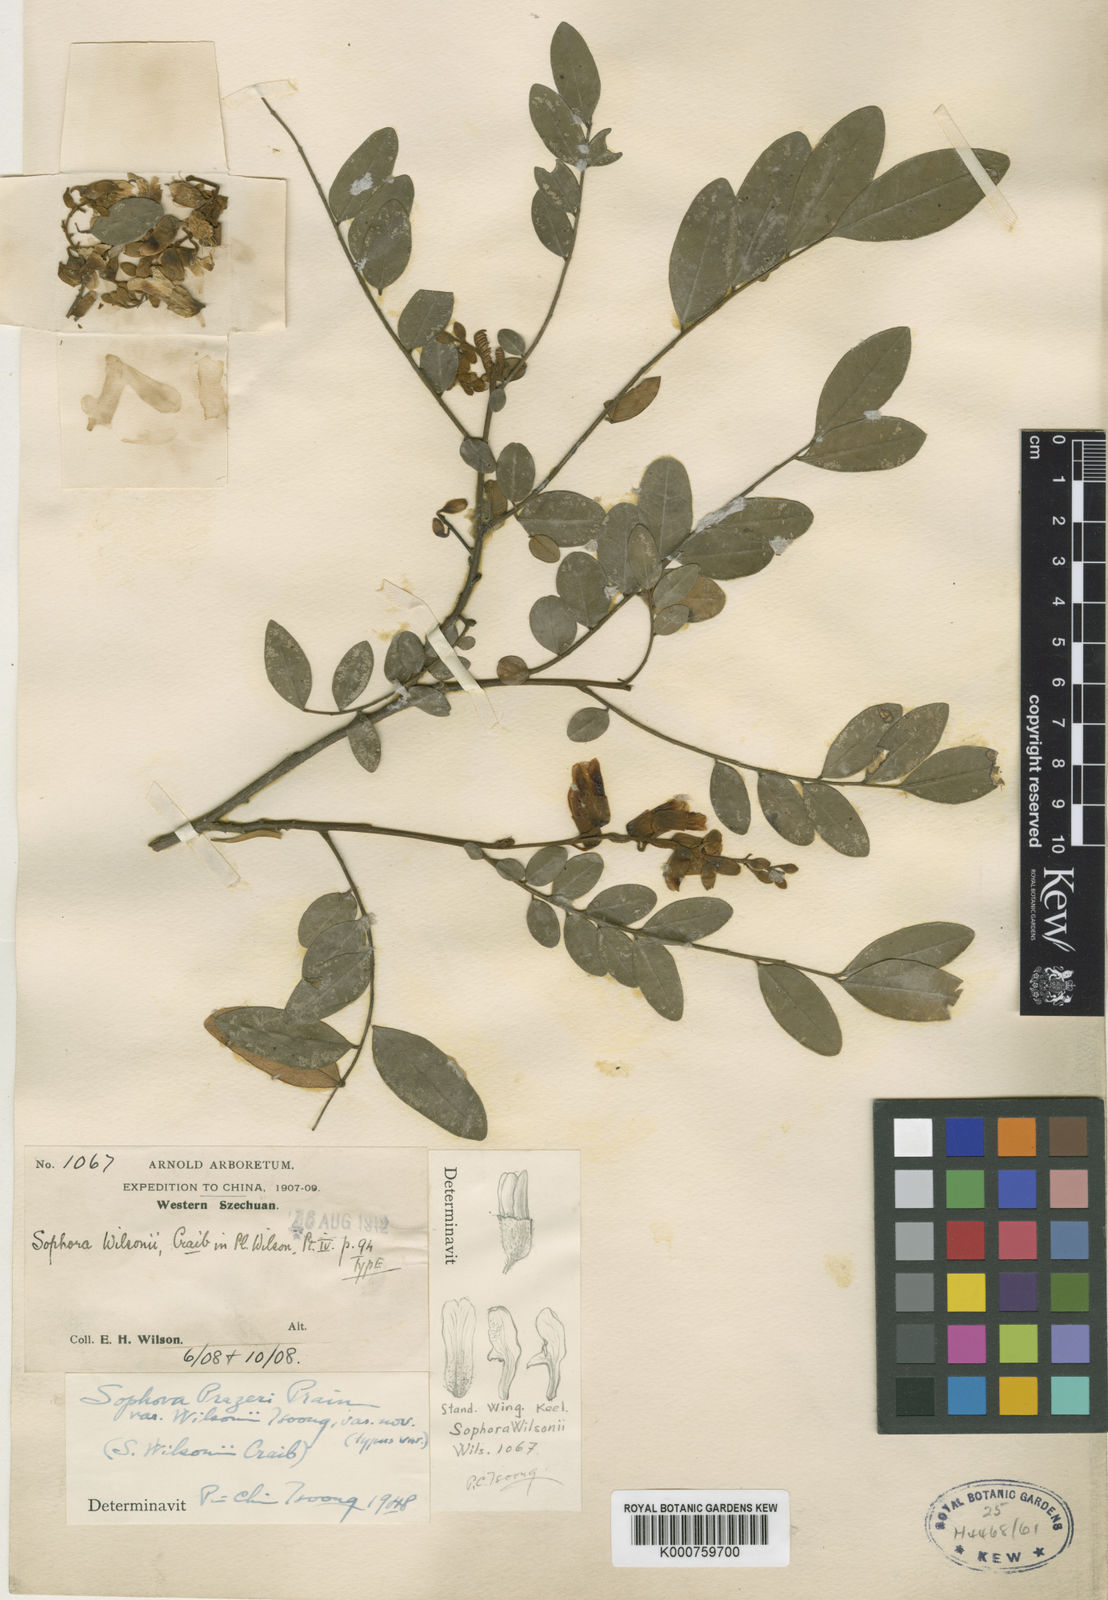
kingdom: Plantae
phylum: Tracheophyta
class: Magnoliopsida
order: Fabales
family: Fabaceae
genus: Sophora
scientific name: Sophora wightii
